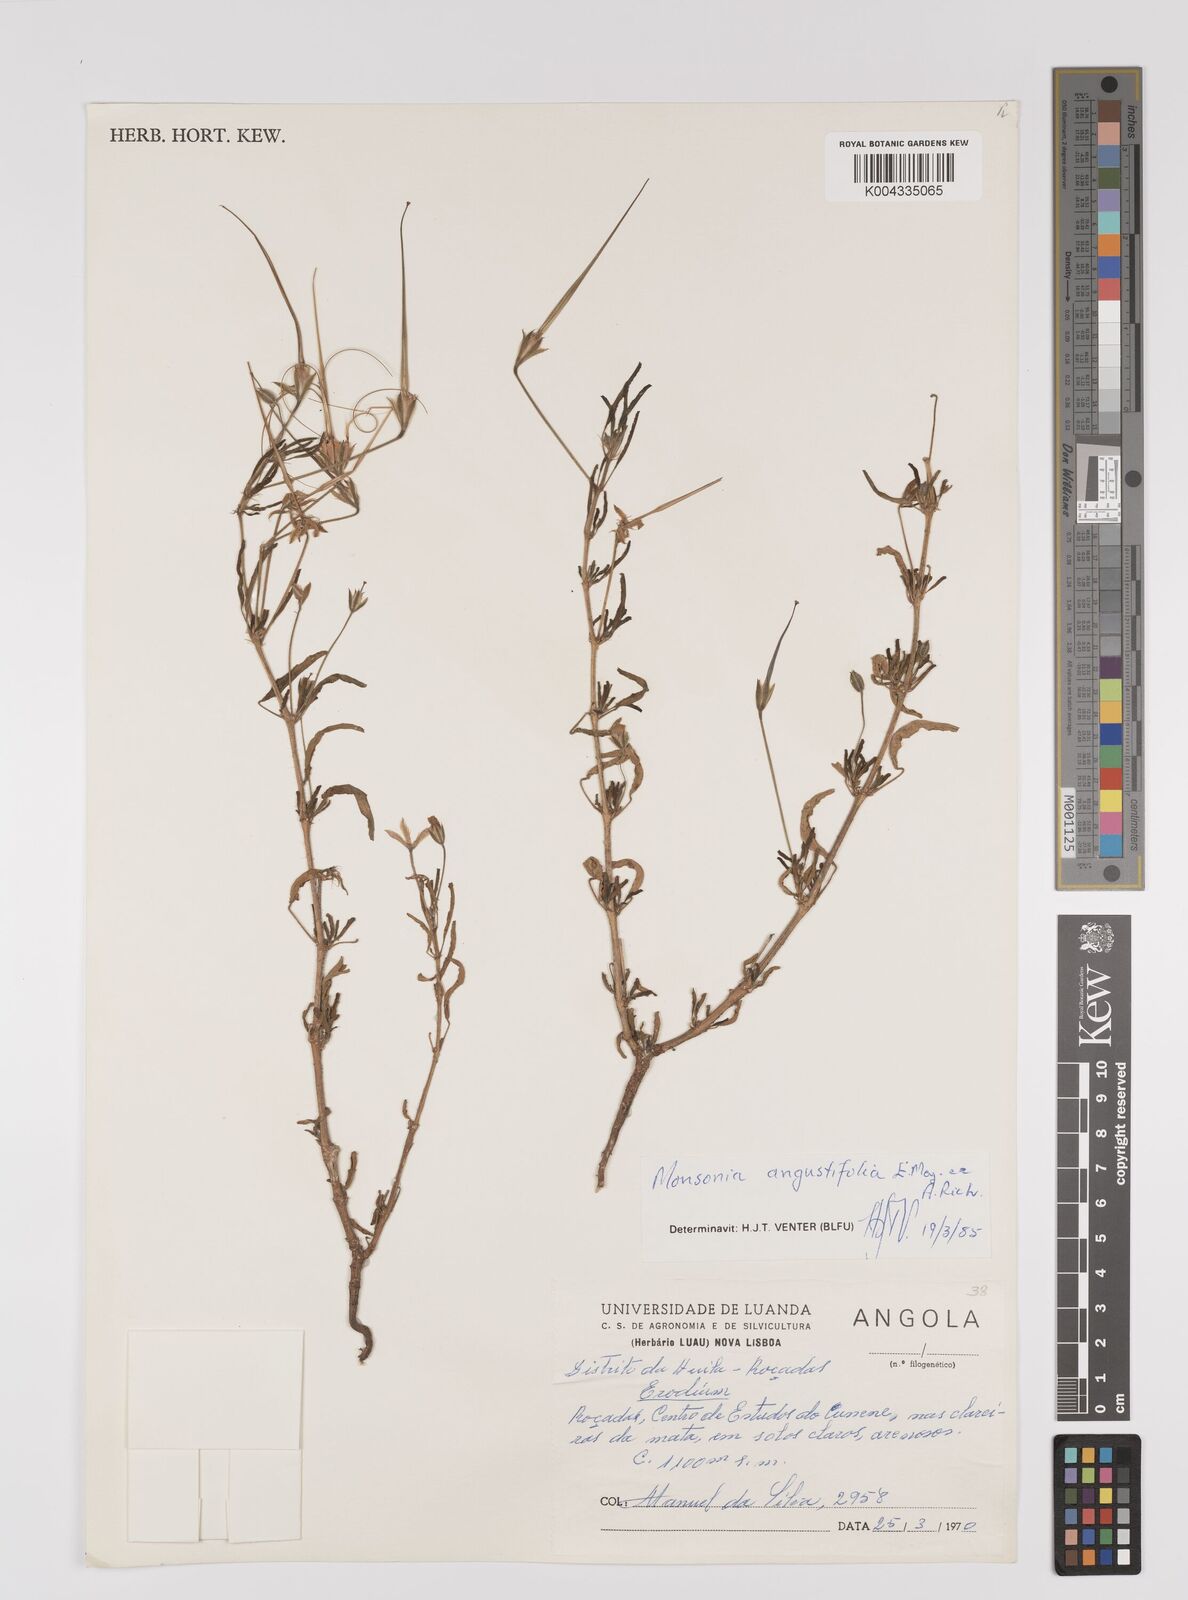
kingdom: Plantae
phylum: Tracheophyta
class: Magnoliopsida
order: Geraniales
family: Geraniaceae
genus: Monsonia
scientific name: Monsonia angustifolia
